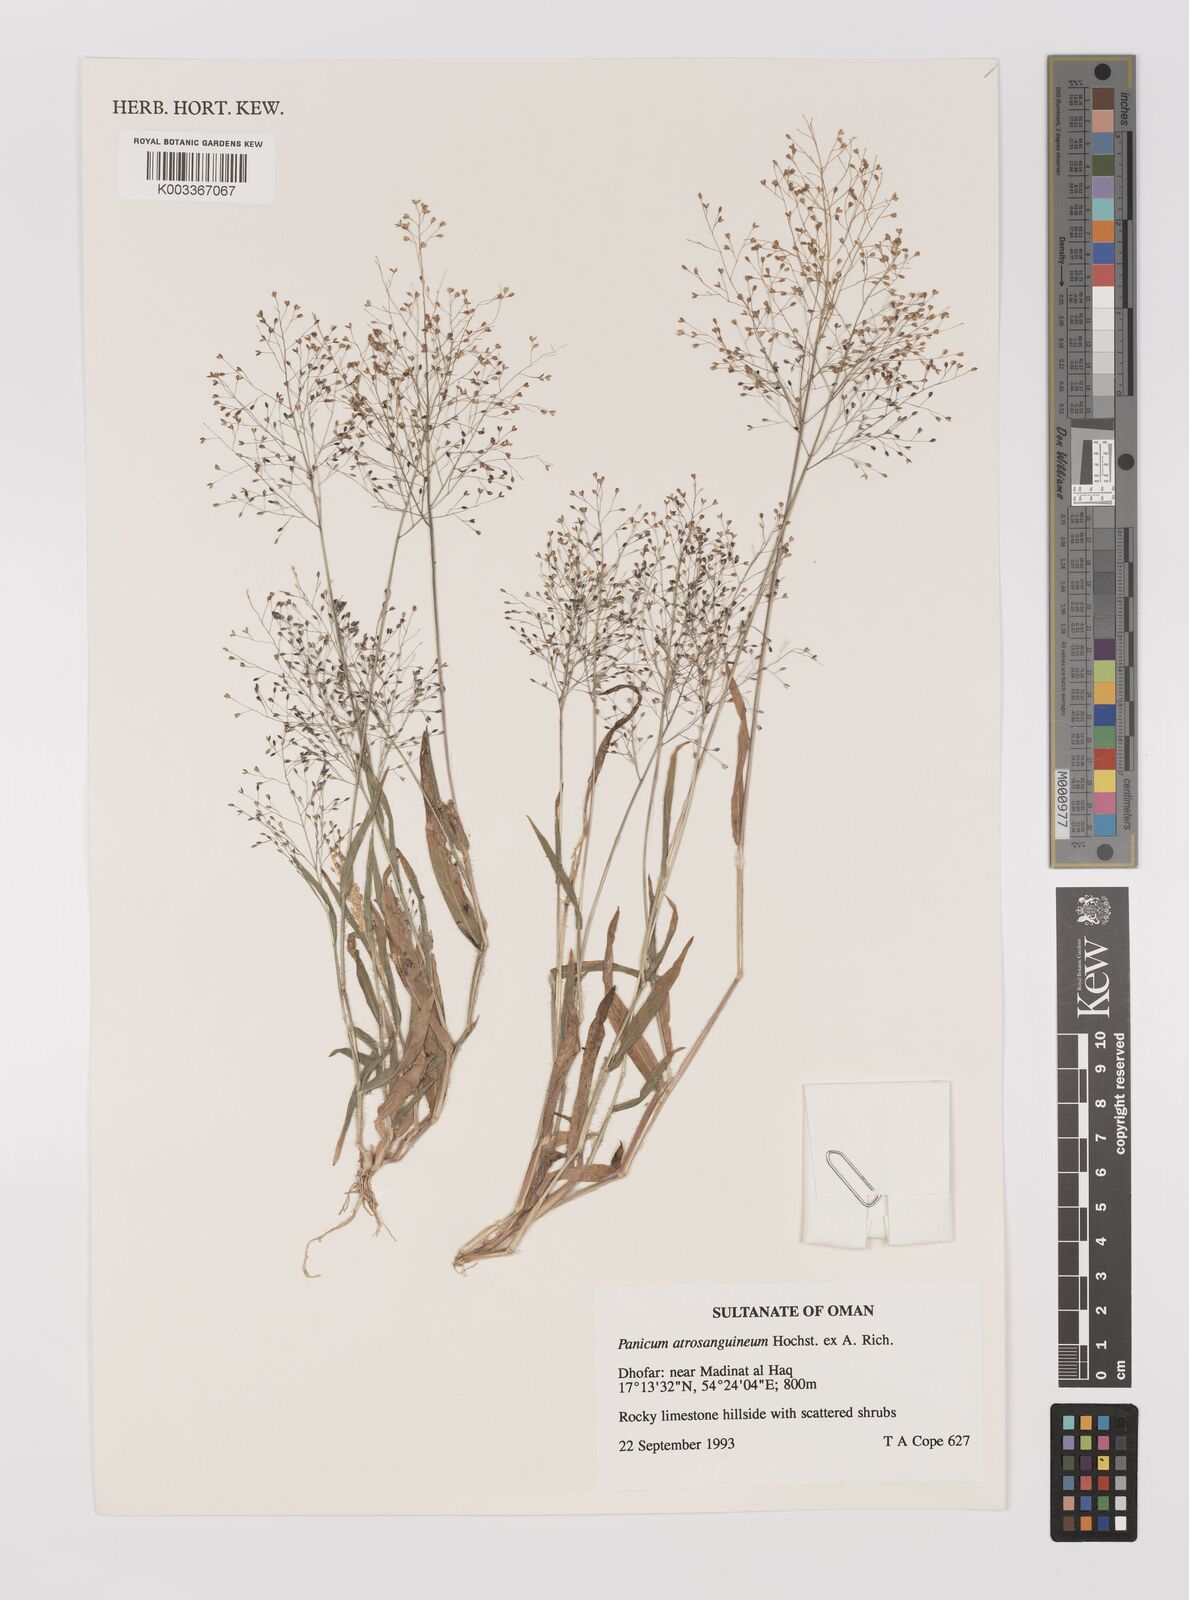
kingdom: Plantae
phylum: Tracheophyta
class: Liliopsida
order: Poales
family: Poaceae
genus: Panicum
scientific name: Panicum atrosanguineum
